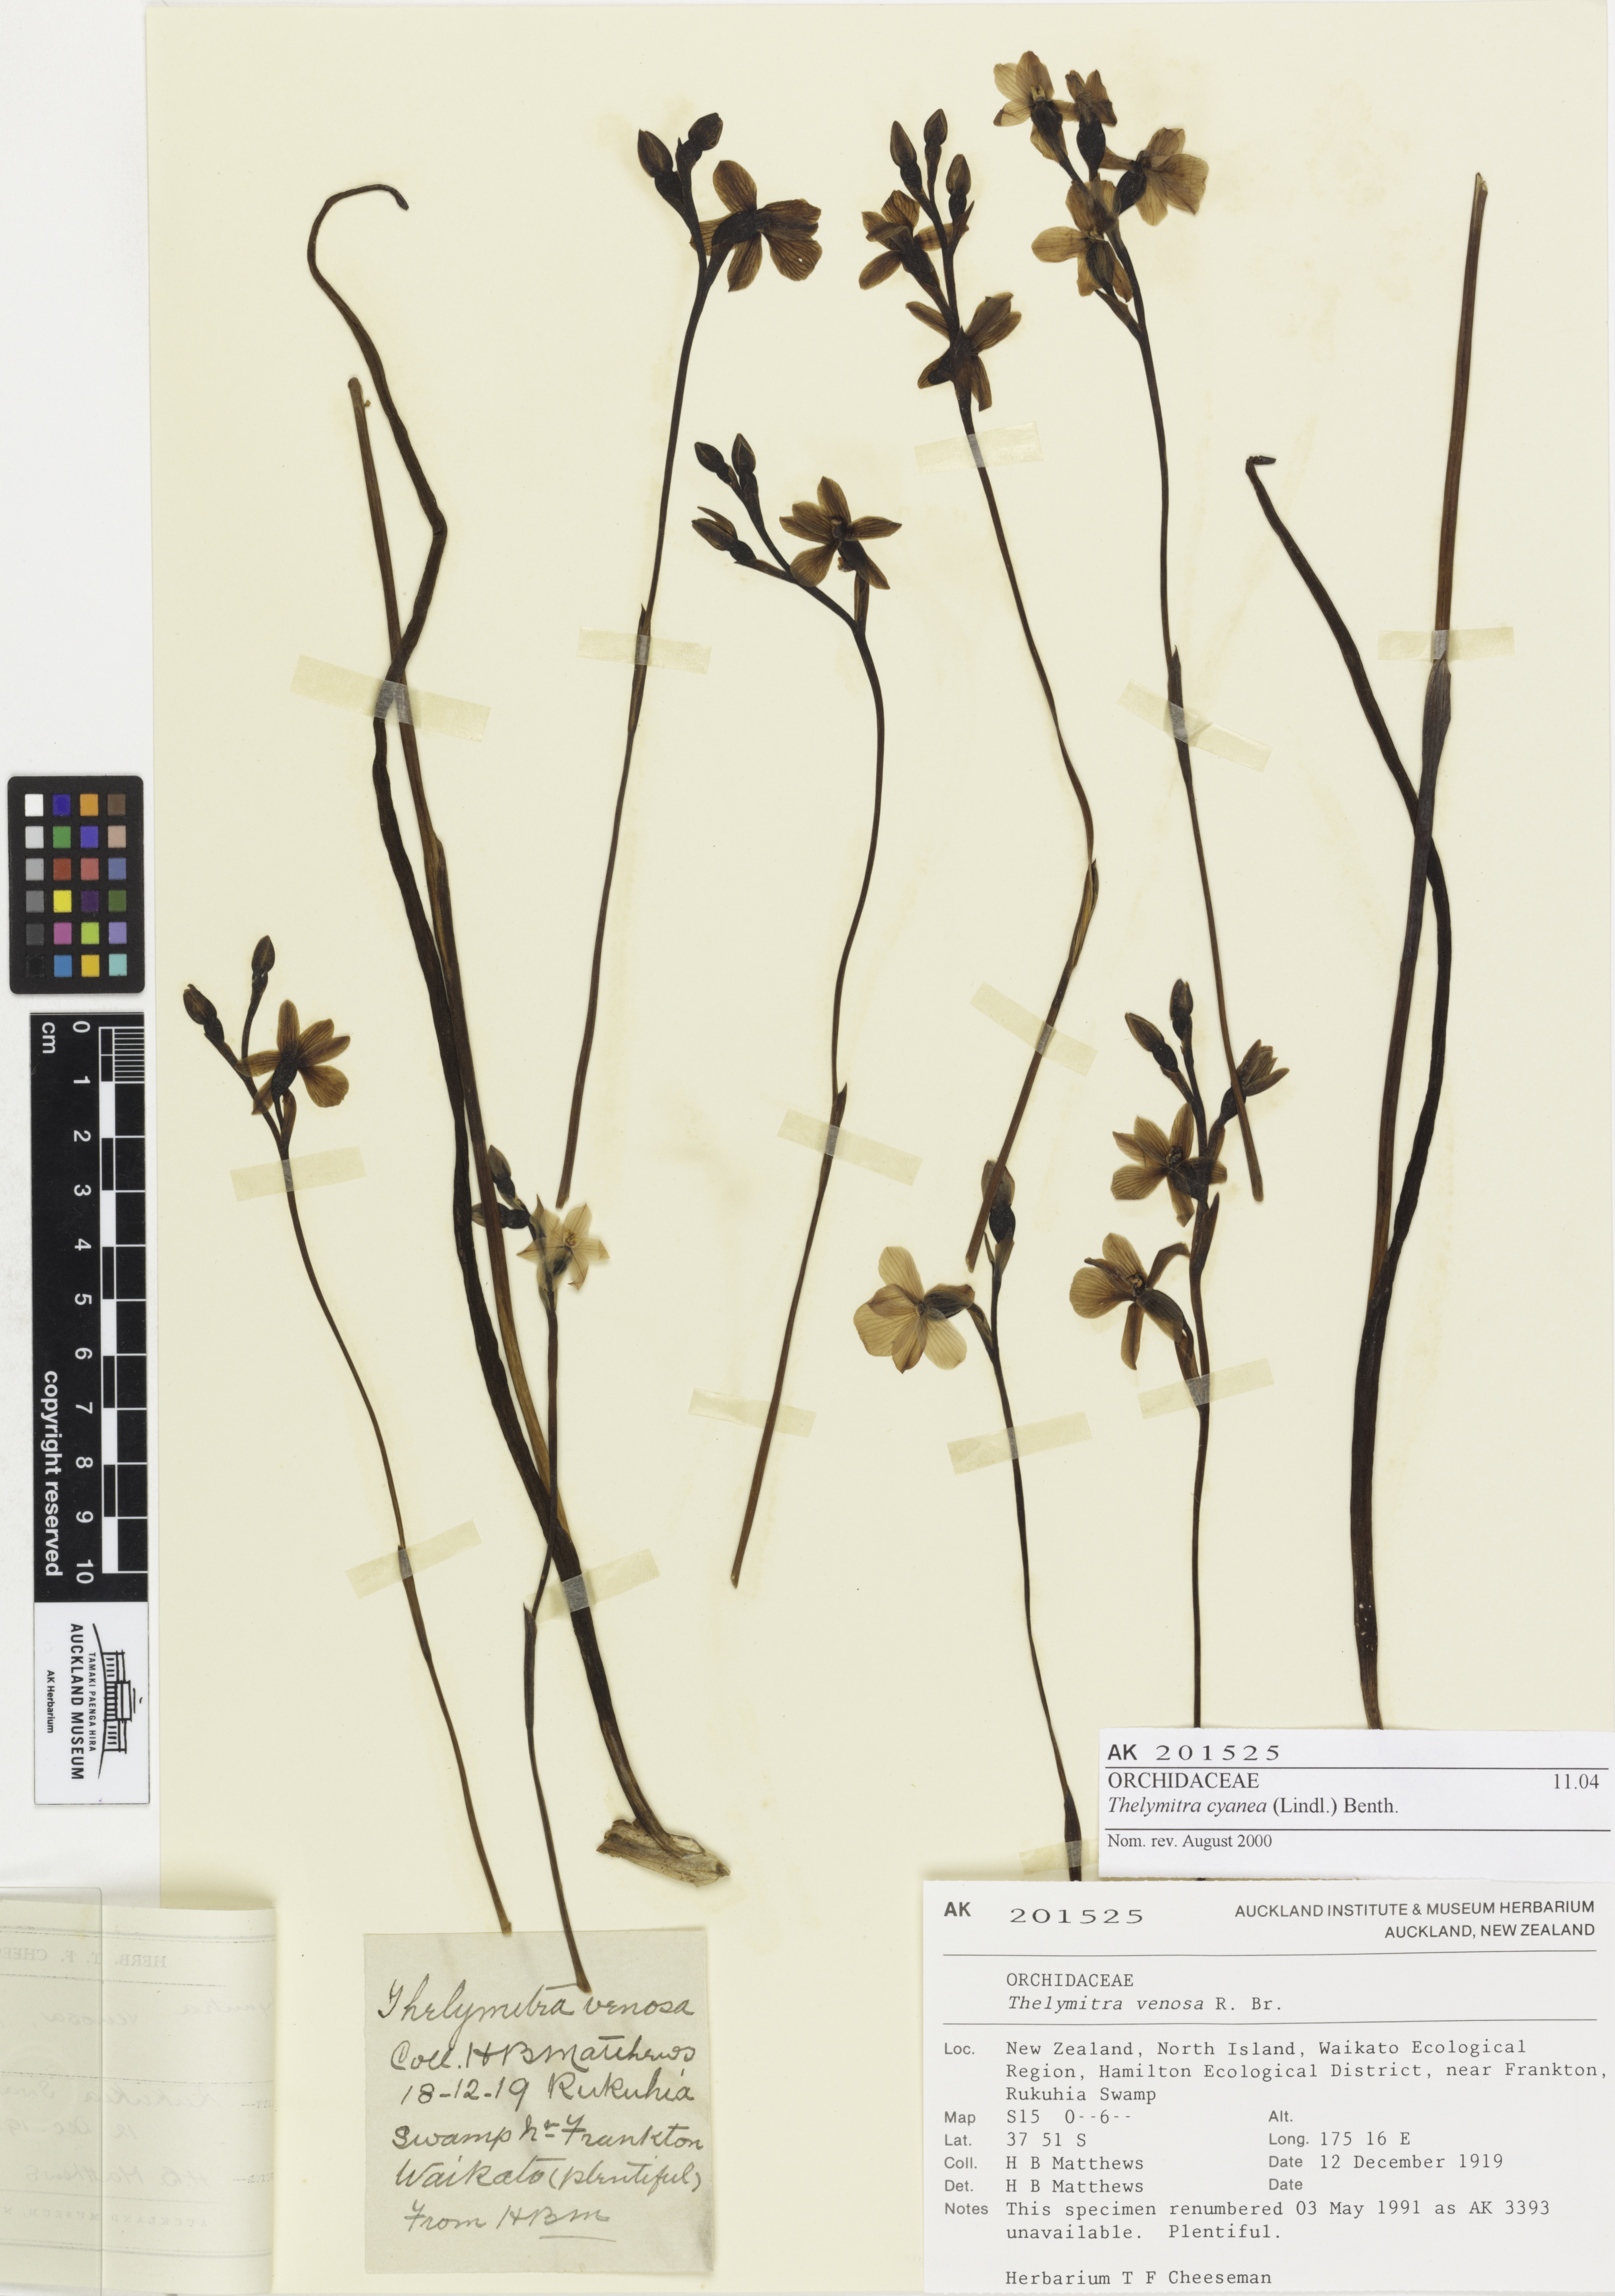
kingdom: Plantae
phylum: Tracheophyta
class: Liliopsida
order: Asparagales
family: Orchidaceae
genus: Thelymitra
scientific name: Thelymitra cyanea
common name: Blue sun-orchid
